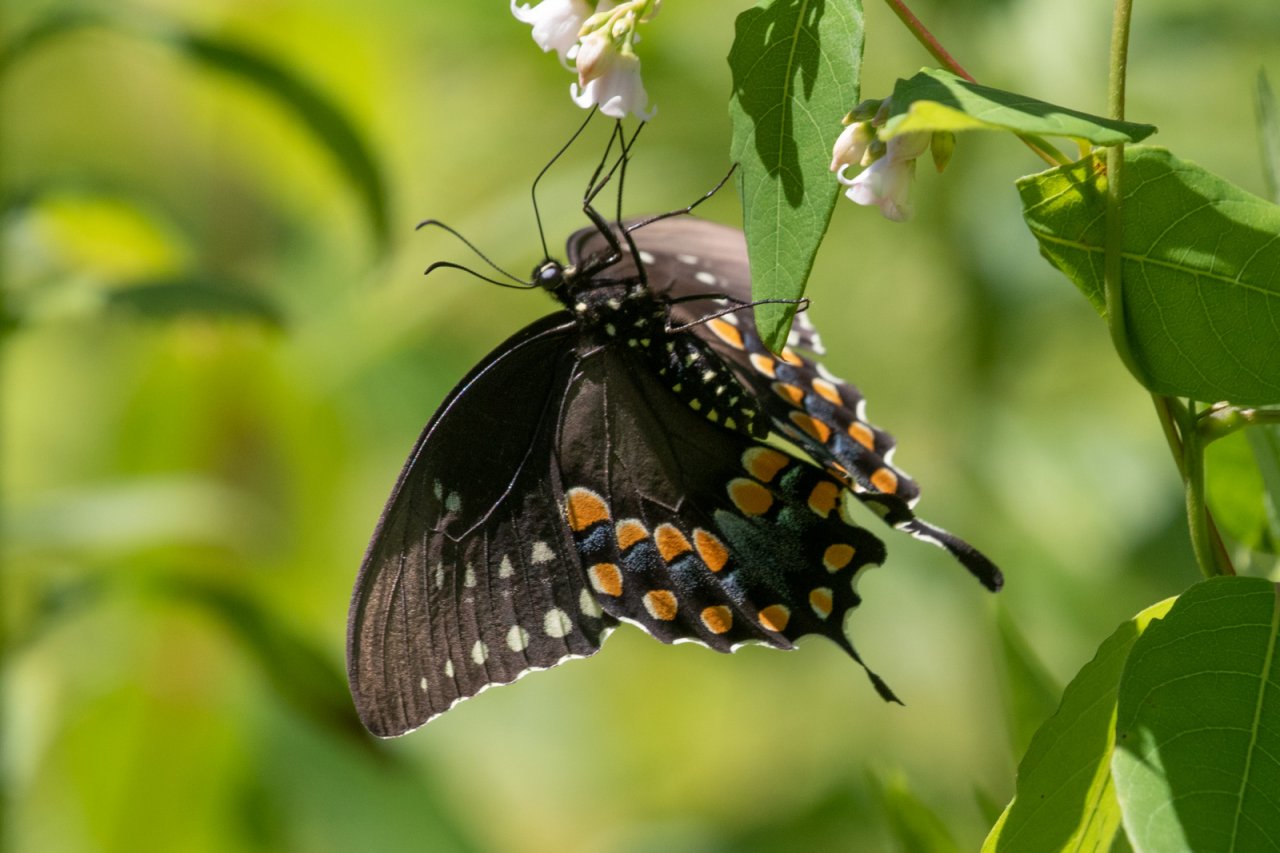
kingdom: Animalia
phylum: Arthropoda
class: Insecta
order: Lepidoptera
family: Papilionidae
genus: Pterourus
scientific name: Pterourus troilus
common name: Spicebush Swallowtail
